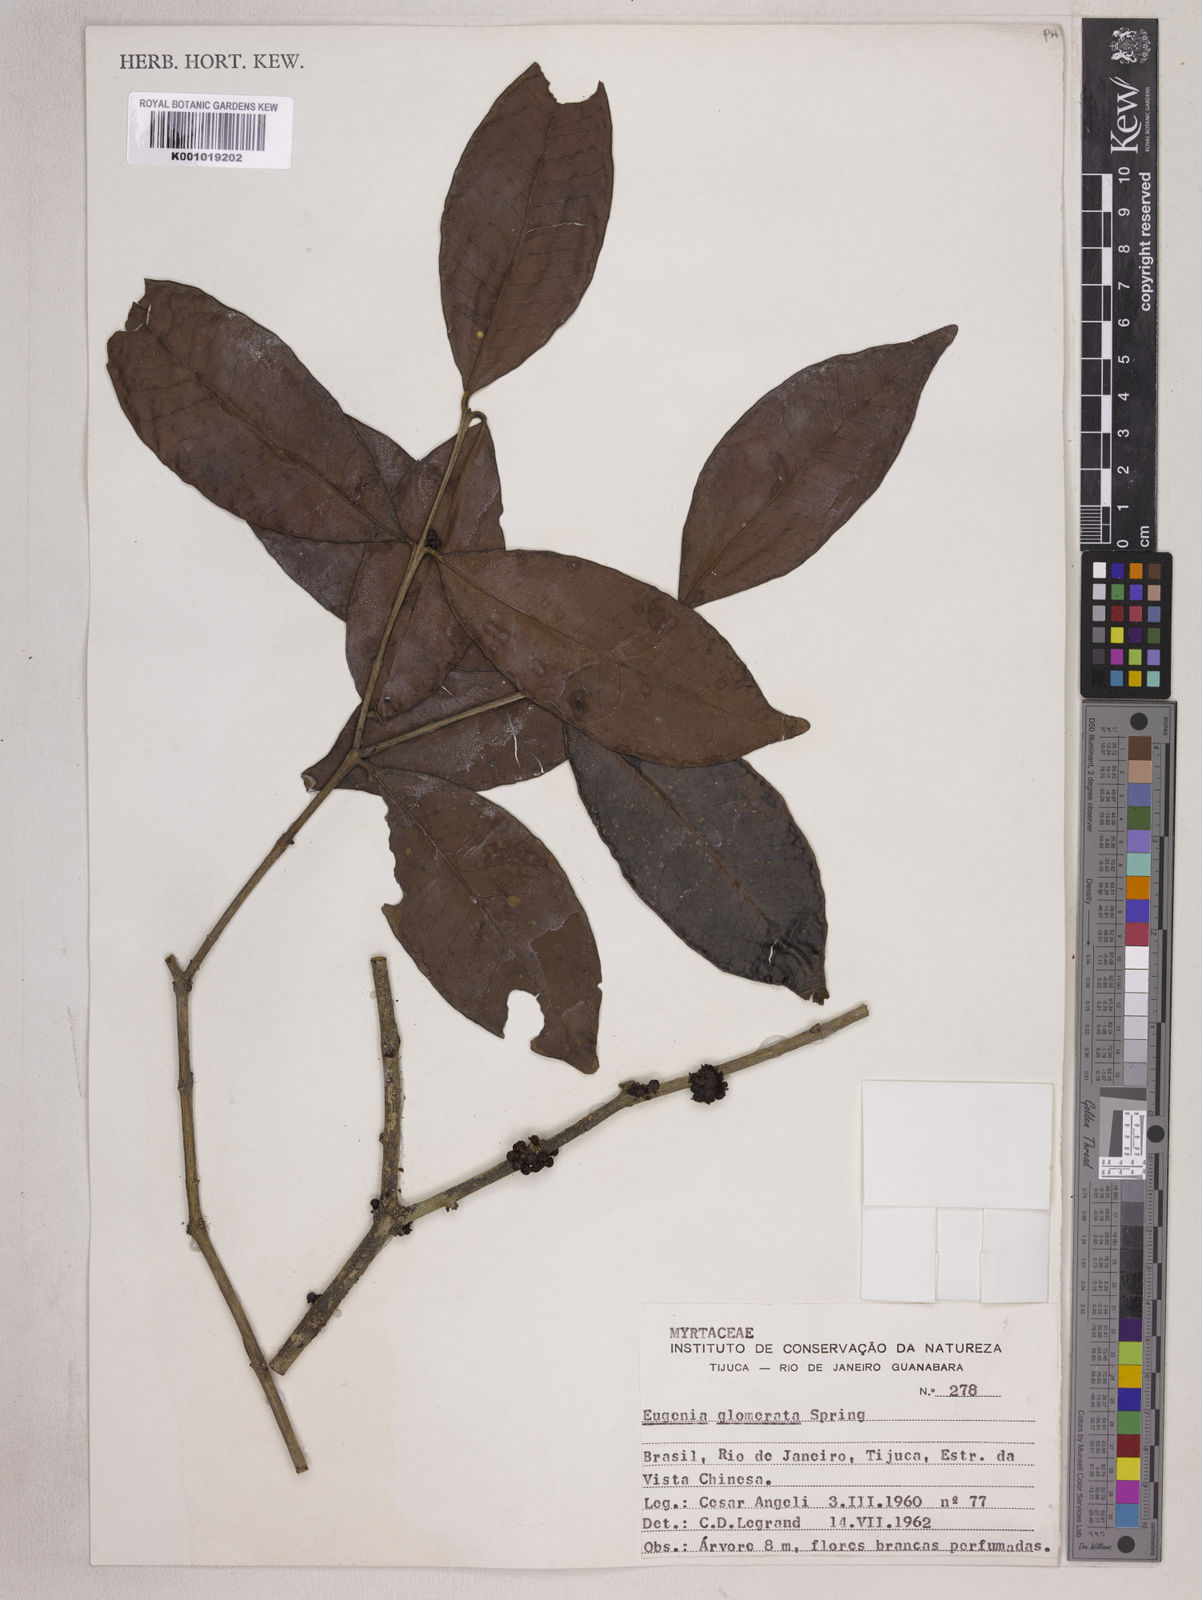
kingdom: Plantae
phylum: Tracheophyta
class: Magnoliopsida
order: Myrtales
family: Myrtaceae
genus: Eugenia
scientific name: Eugenia neoglomerata
